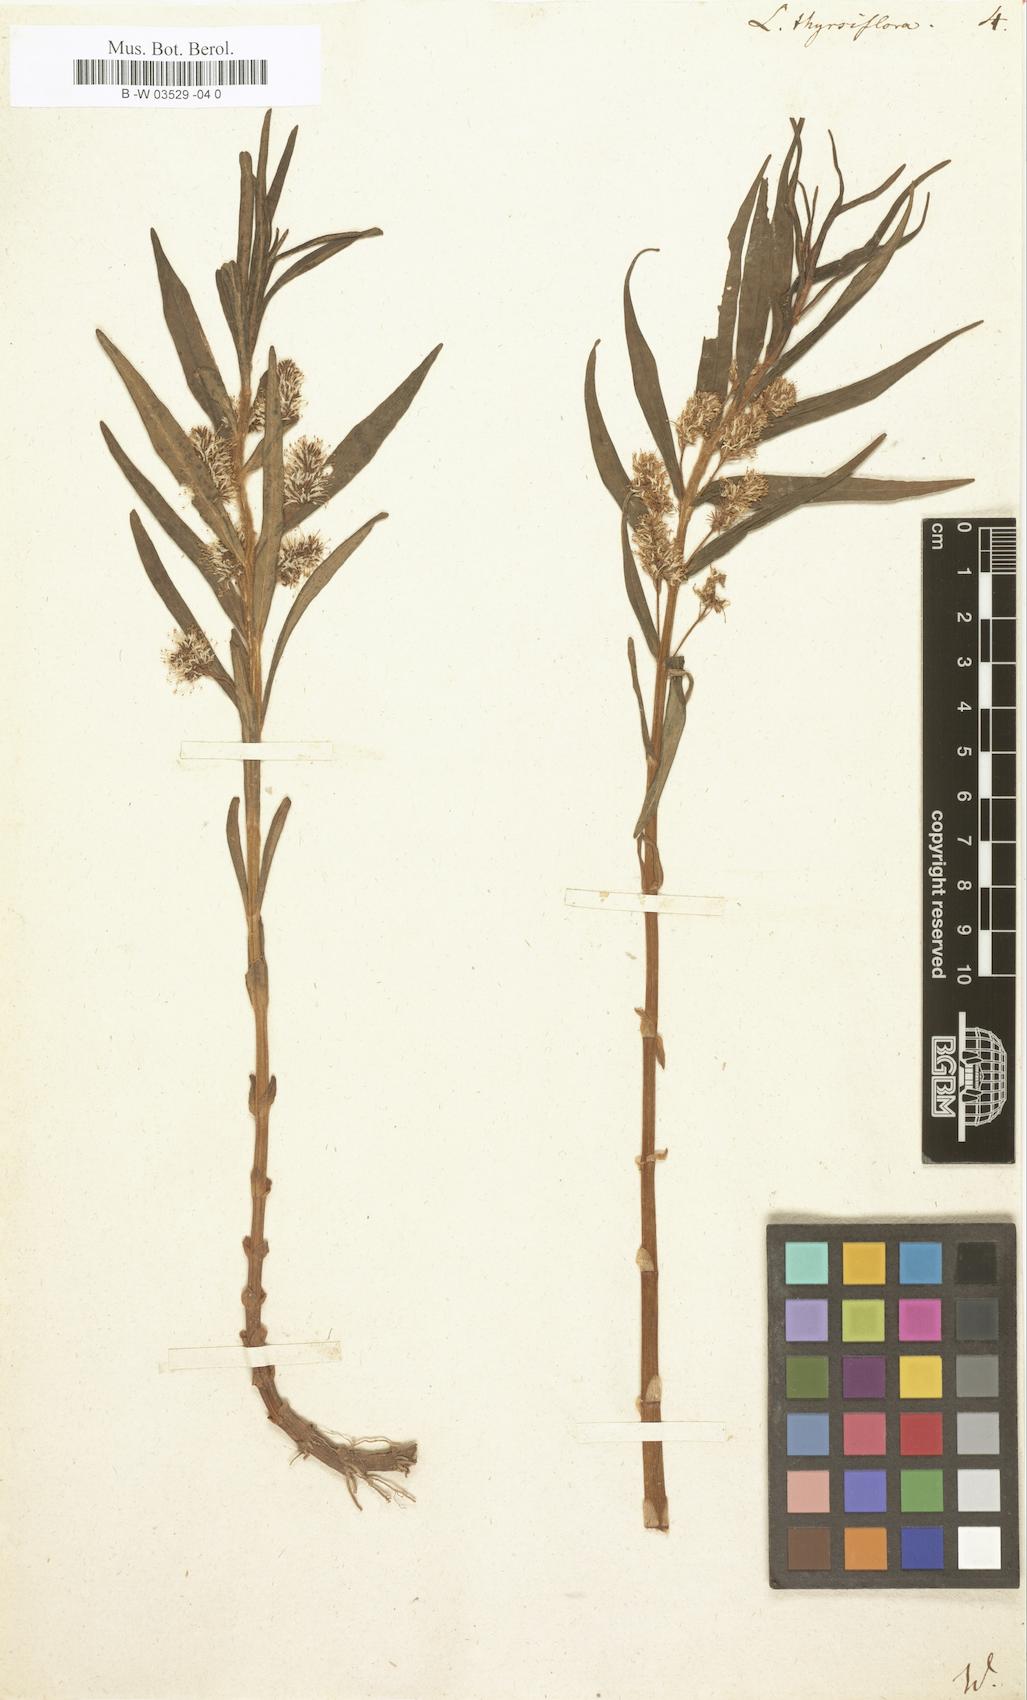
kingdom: Plantae
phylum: Tracheophyta
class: Magnoliopsida
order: Ericales
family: Primulaceae
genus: Lysimachia
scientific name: Lysimachia thyrsiflora
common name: Tufted loosestrife
